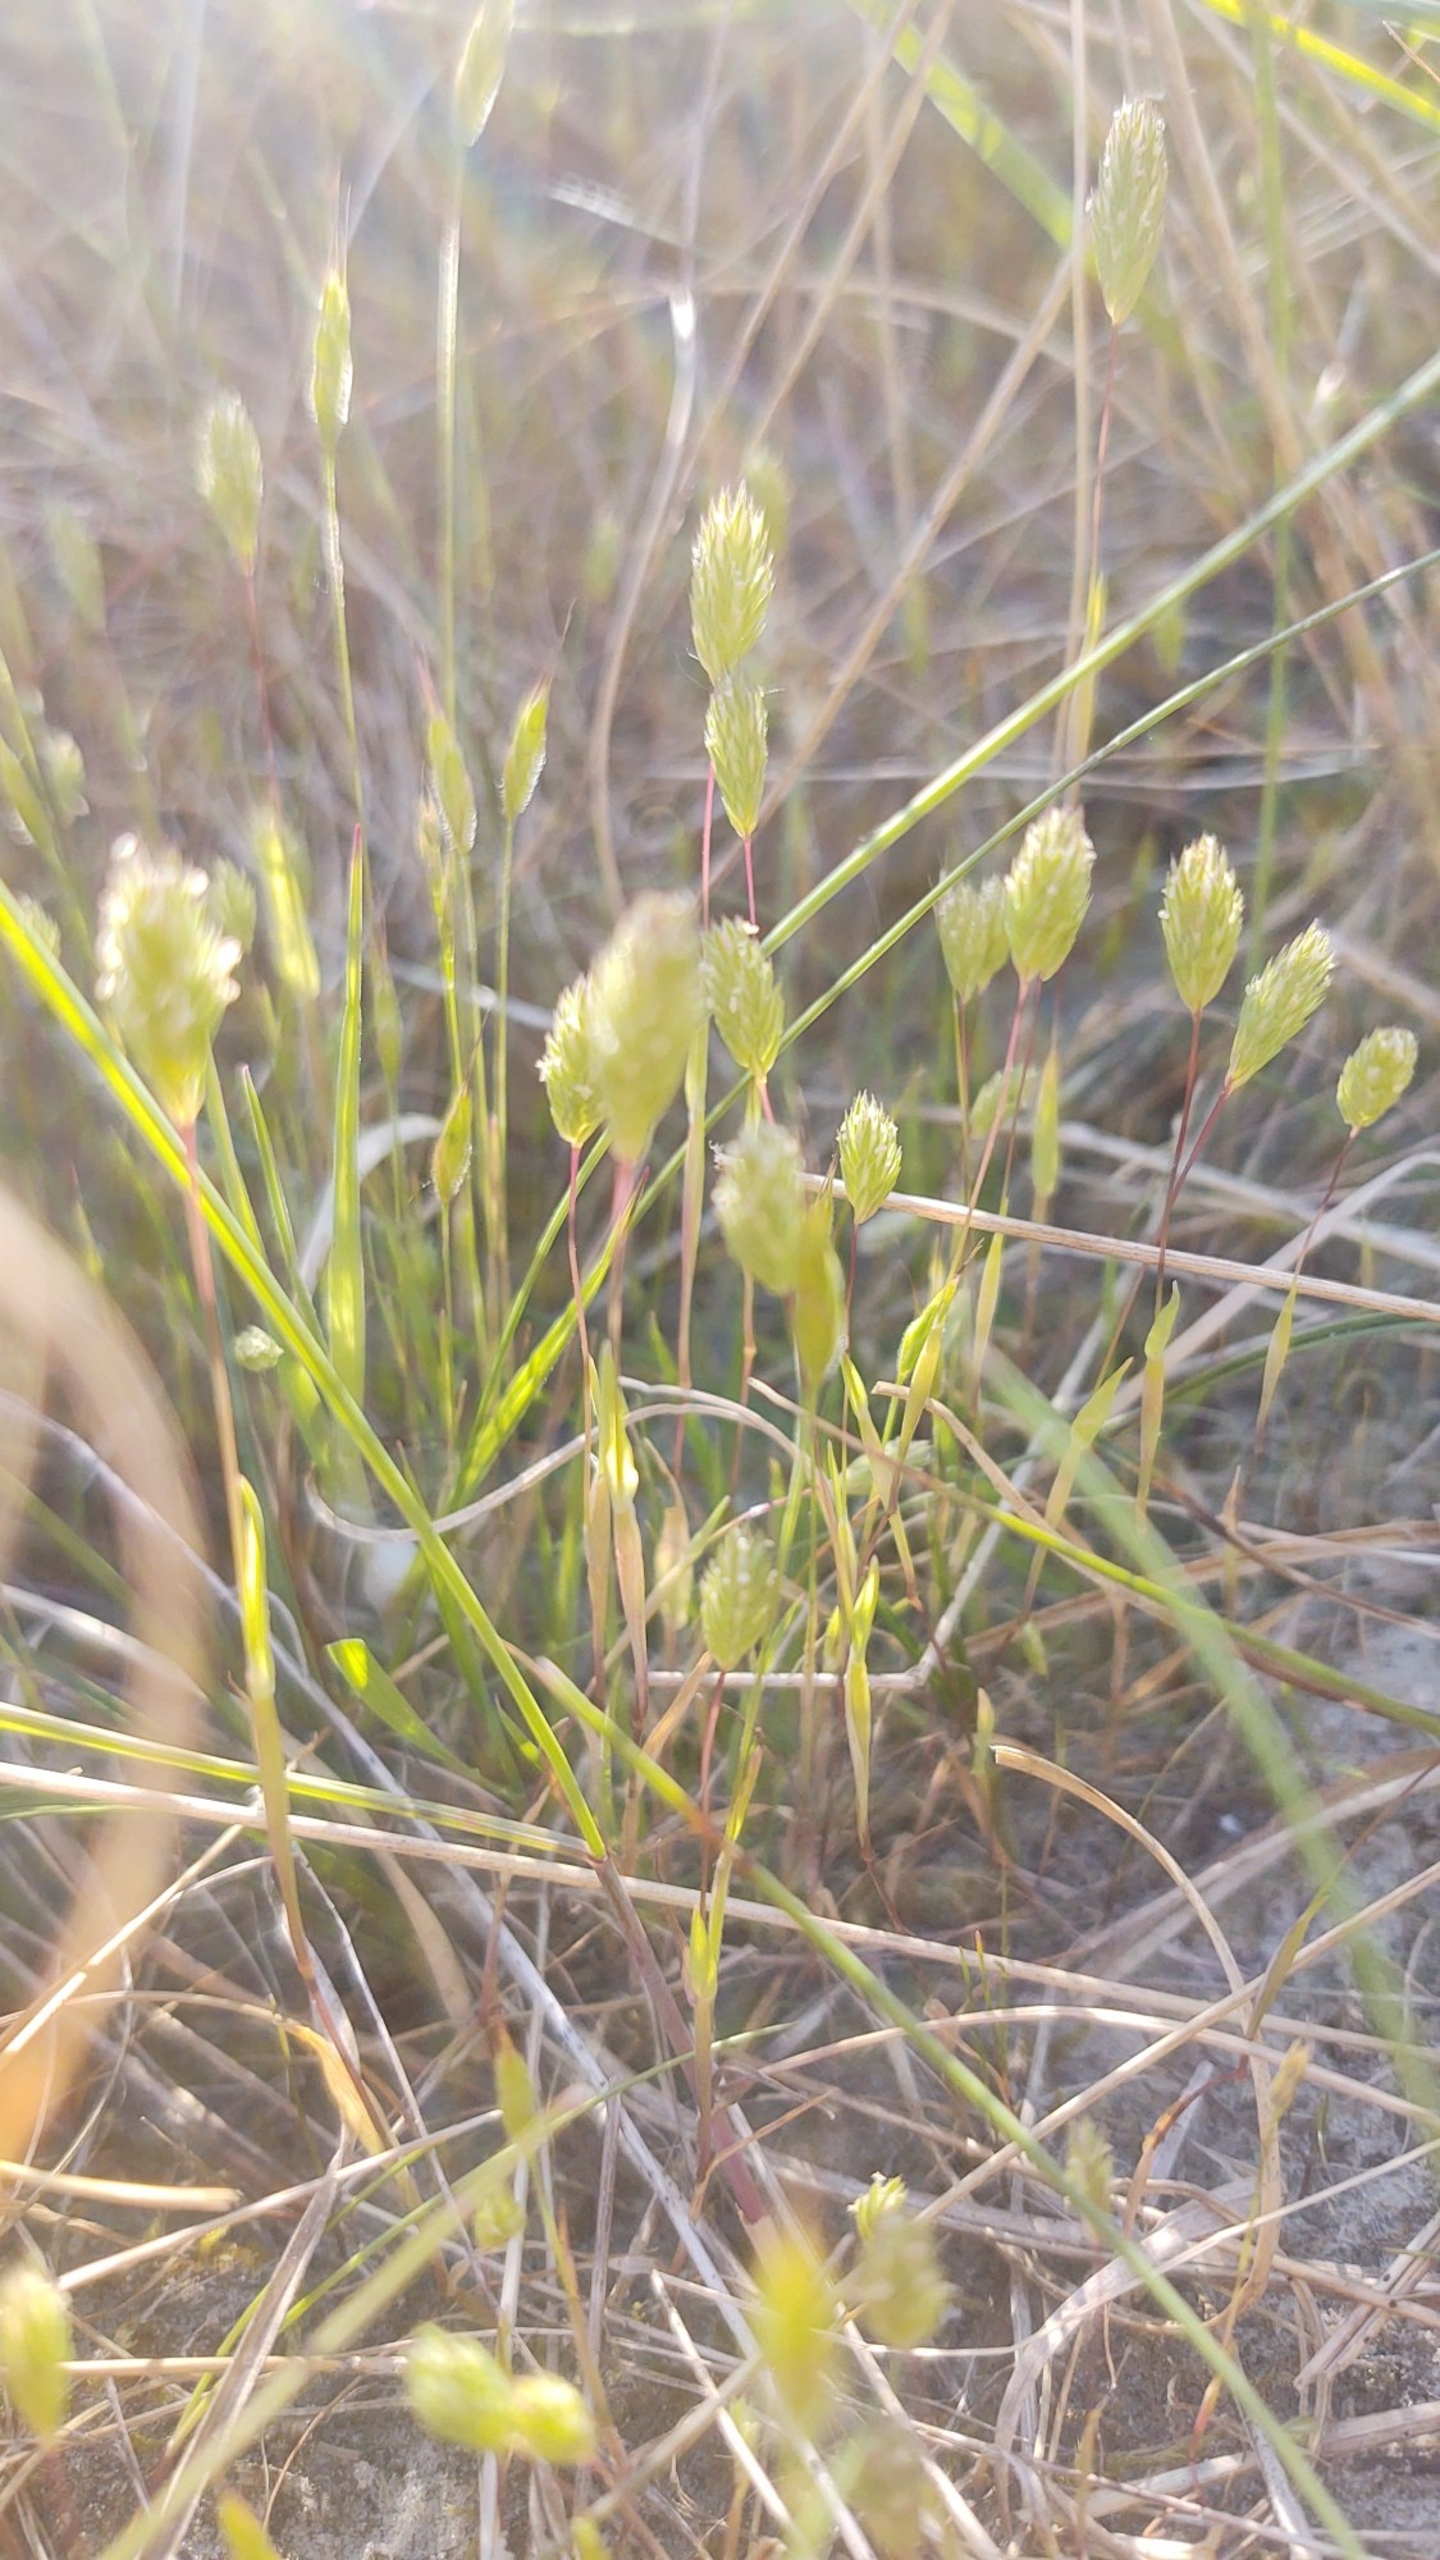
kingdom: Plantae
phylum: Tracheophyta
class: Liliopsida
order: Poales
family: Poaceae
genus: Phleum
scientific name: Phleum arenarium
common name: Sand-rottehale
